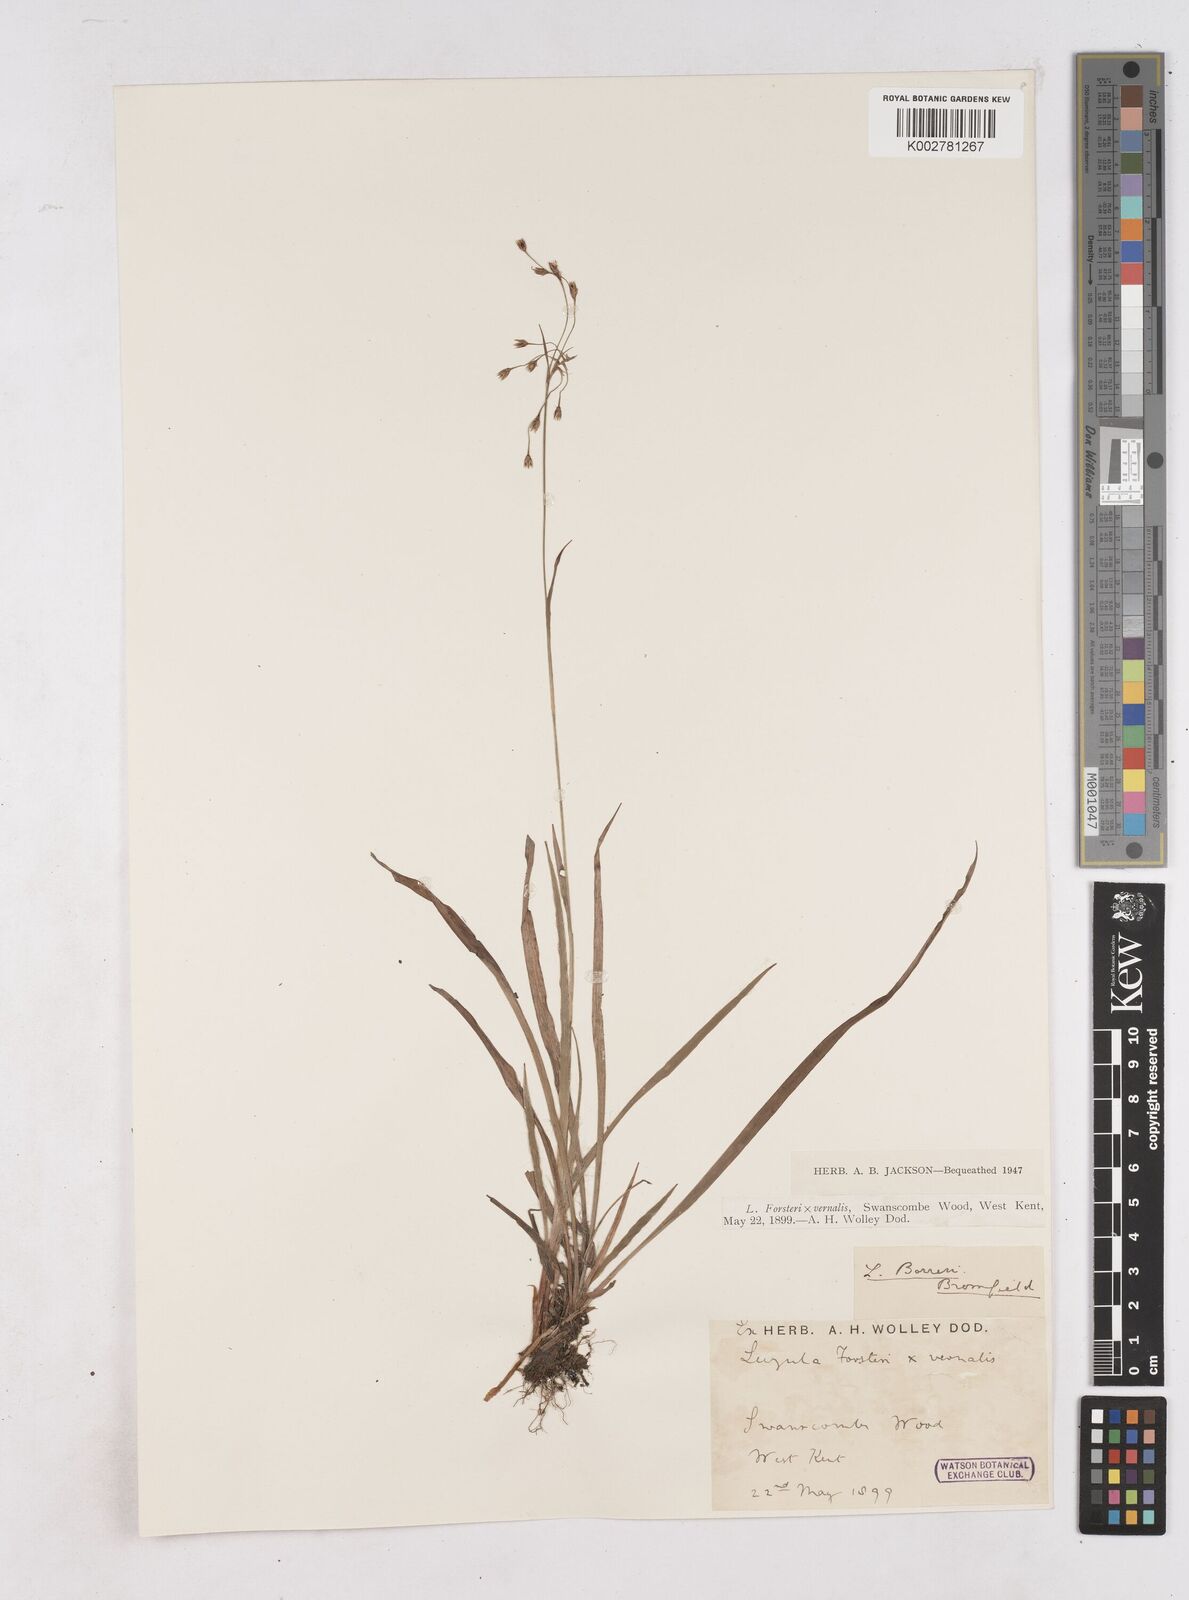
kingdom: Plantae
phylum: Tracheophyta
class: Liliopsida
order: Poales
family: Juncaceae
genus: Luzula
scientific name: Luzula borreri
